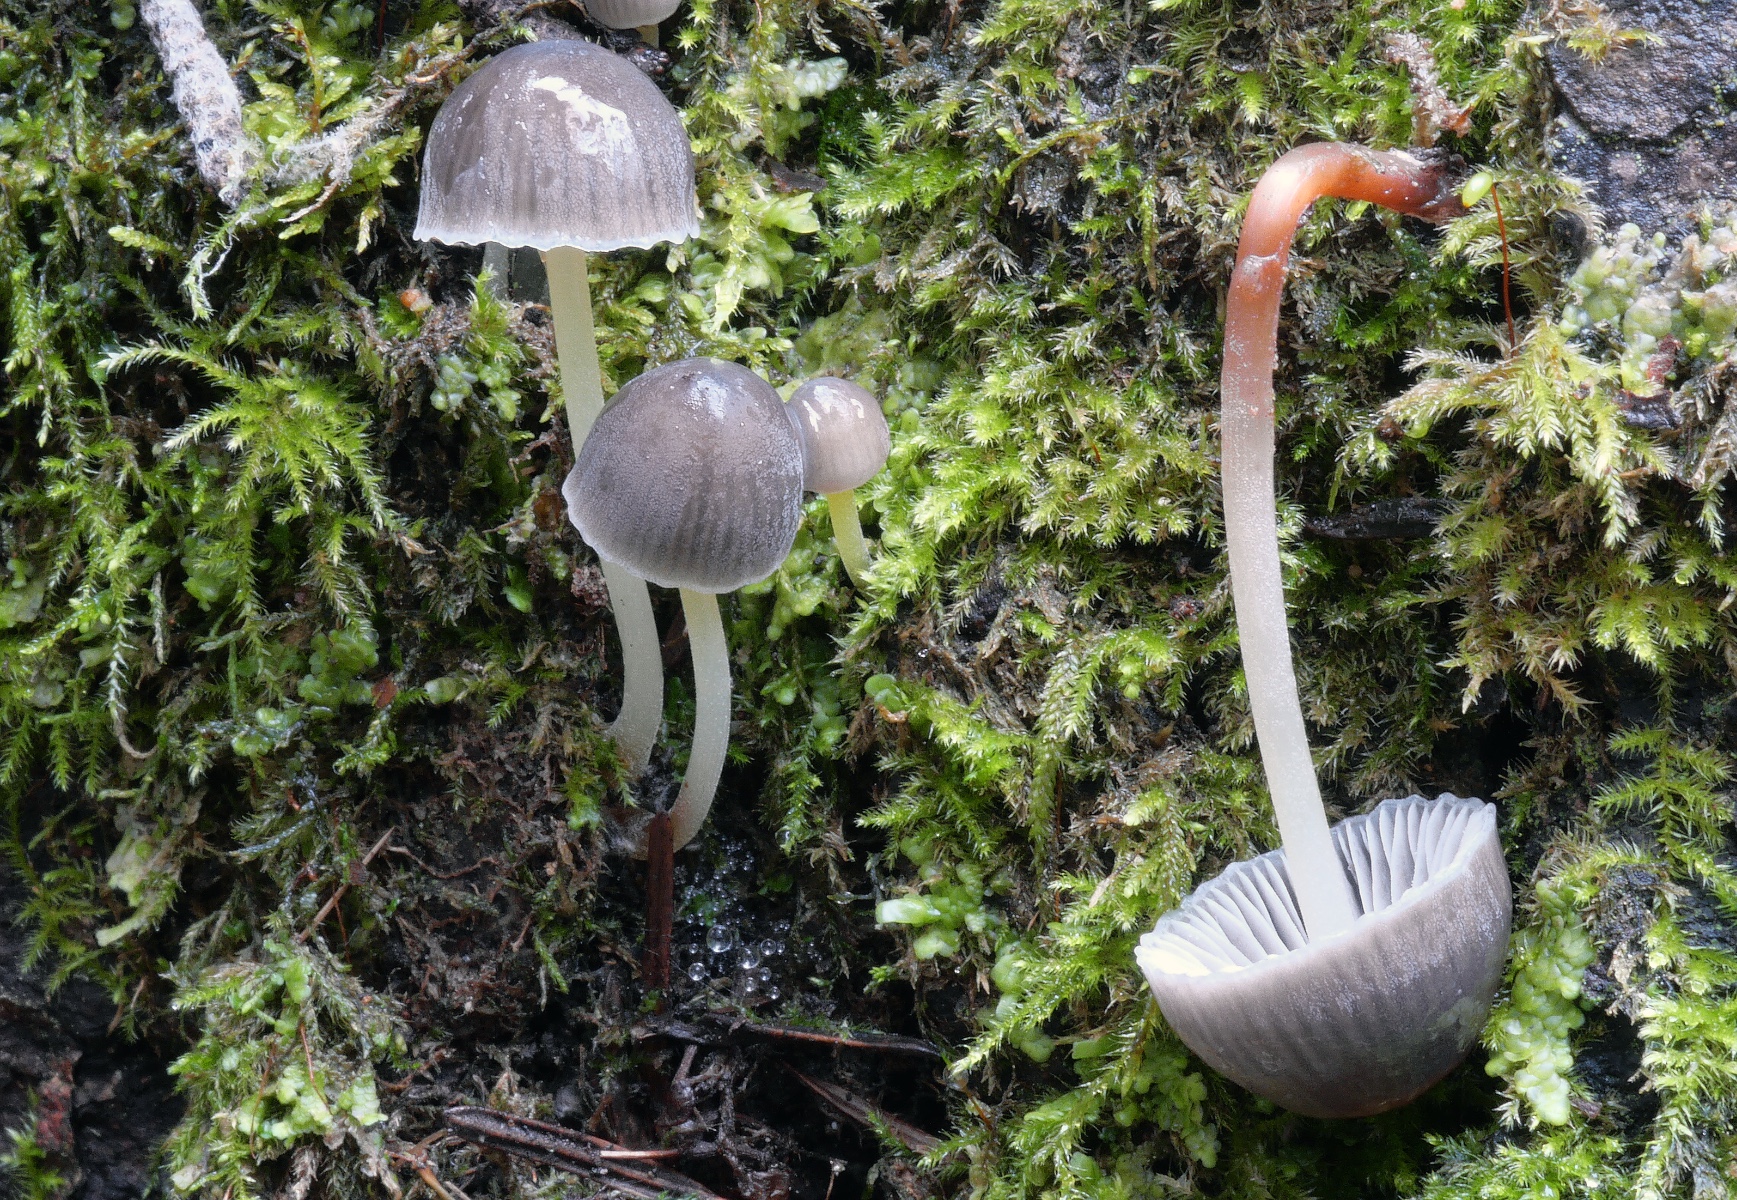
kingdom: Fungi
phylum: Basidiomycota
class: Agaricomycetes
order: Agaricales
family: Mycenaceae
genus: Mycena
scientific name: Mycena epipterygia
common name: Yellowleg bonnet
